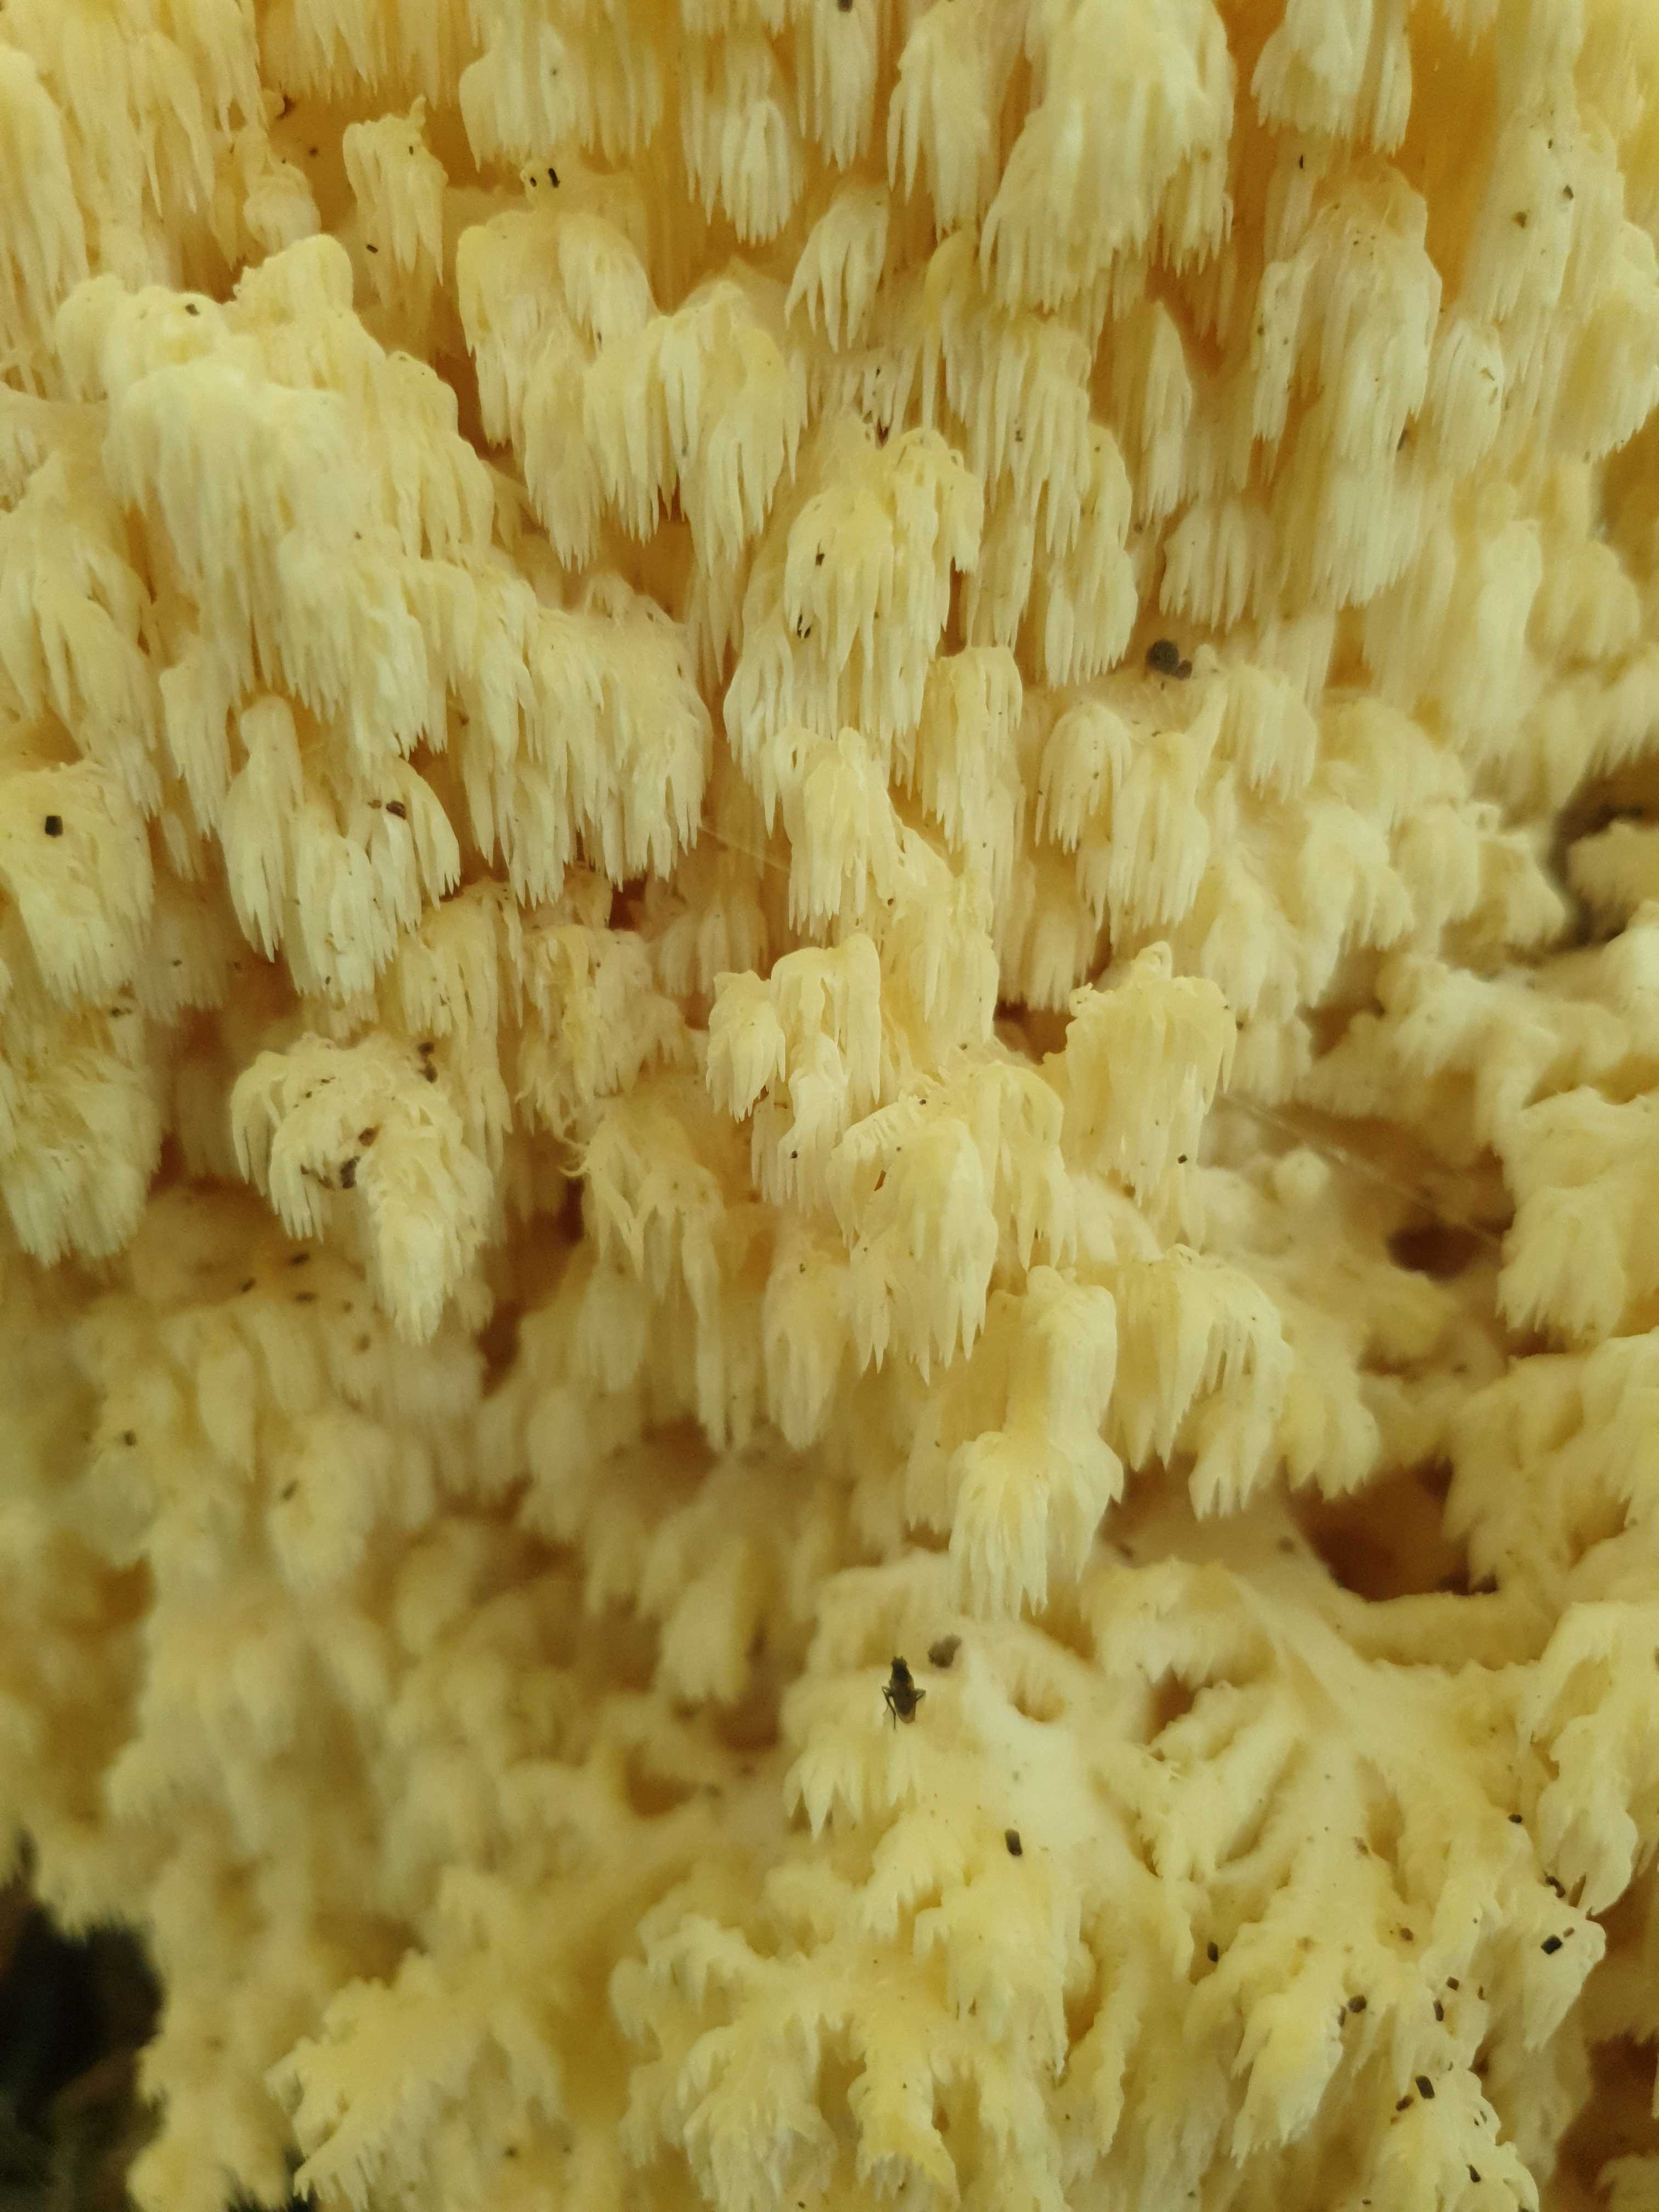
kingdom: Fungi
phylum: Basidiomycota
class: Agaricomycetes
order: Russulales
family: Hericiaceae
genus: Hericium
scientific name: Hericium coralloides
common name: koralpigsvamp
